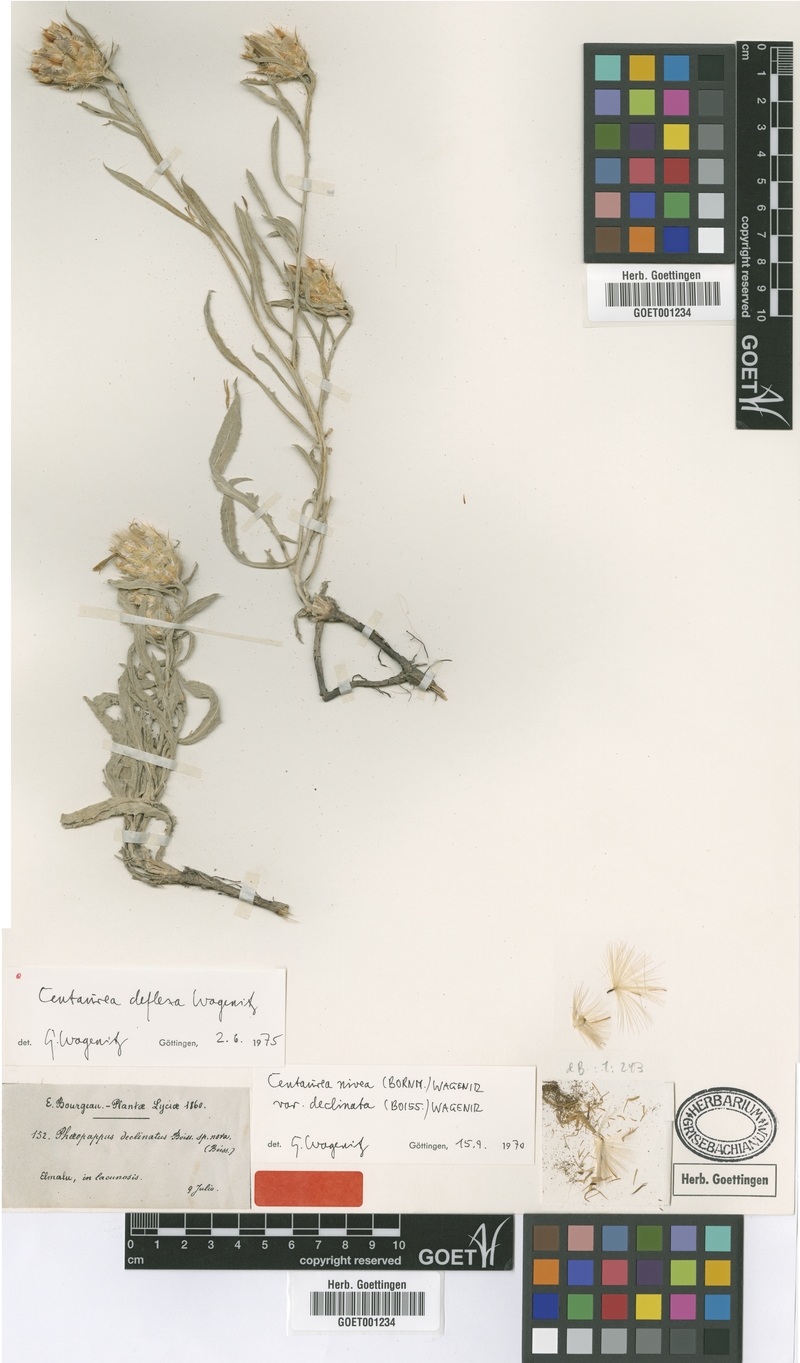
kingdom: Plantae
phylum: Tracheophyta
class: Magnoliopsida
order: Asterales
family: Asteraceae
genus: Centaurea
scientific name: Centaurea deflexa
